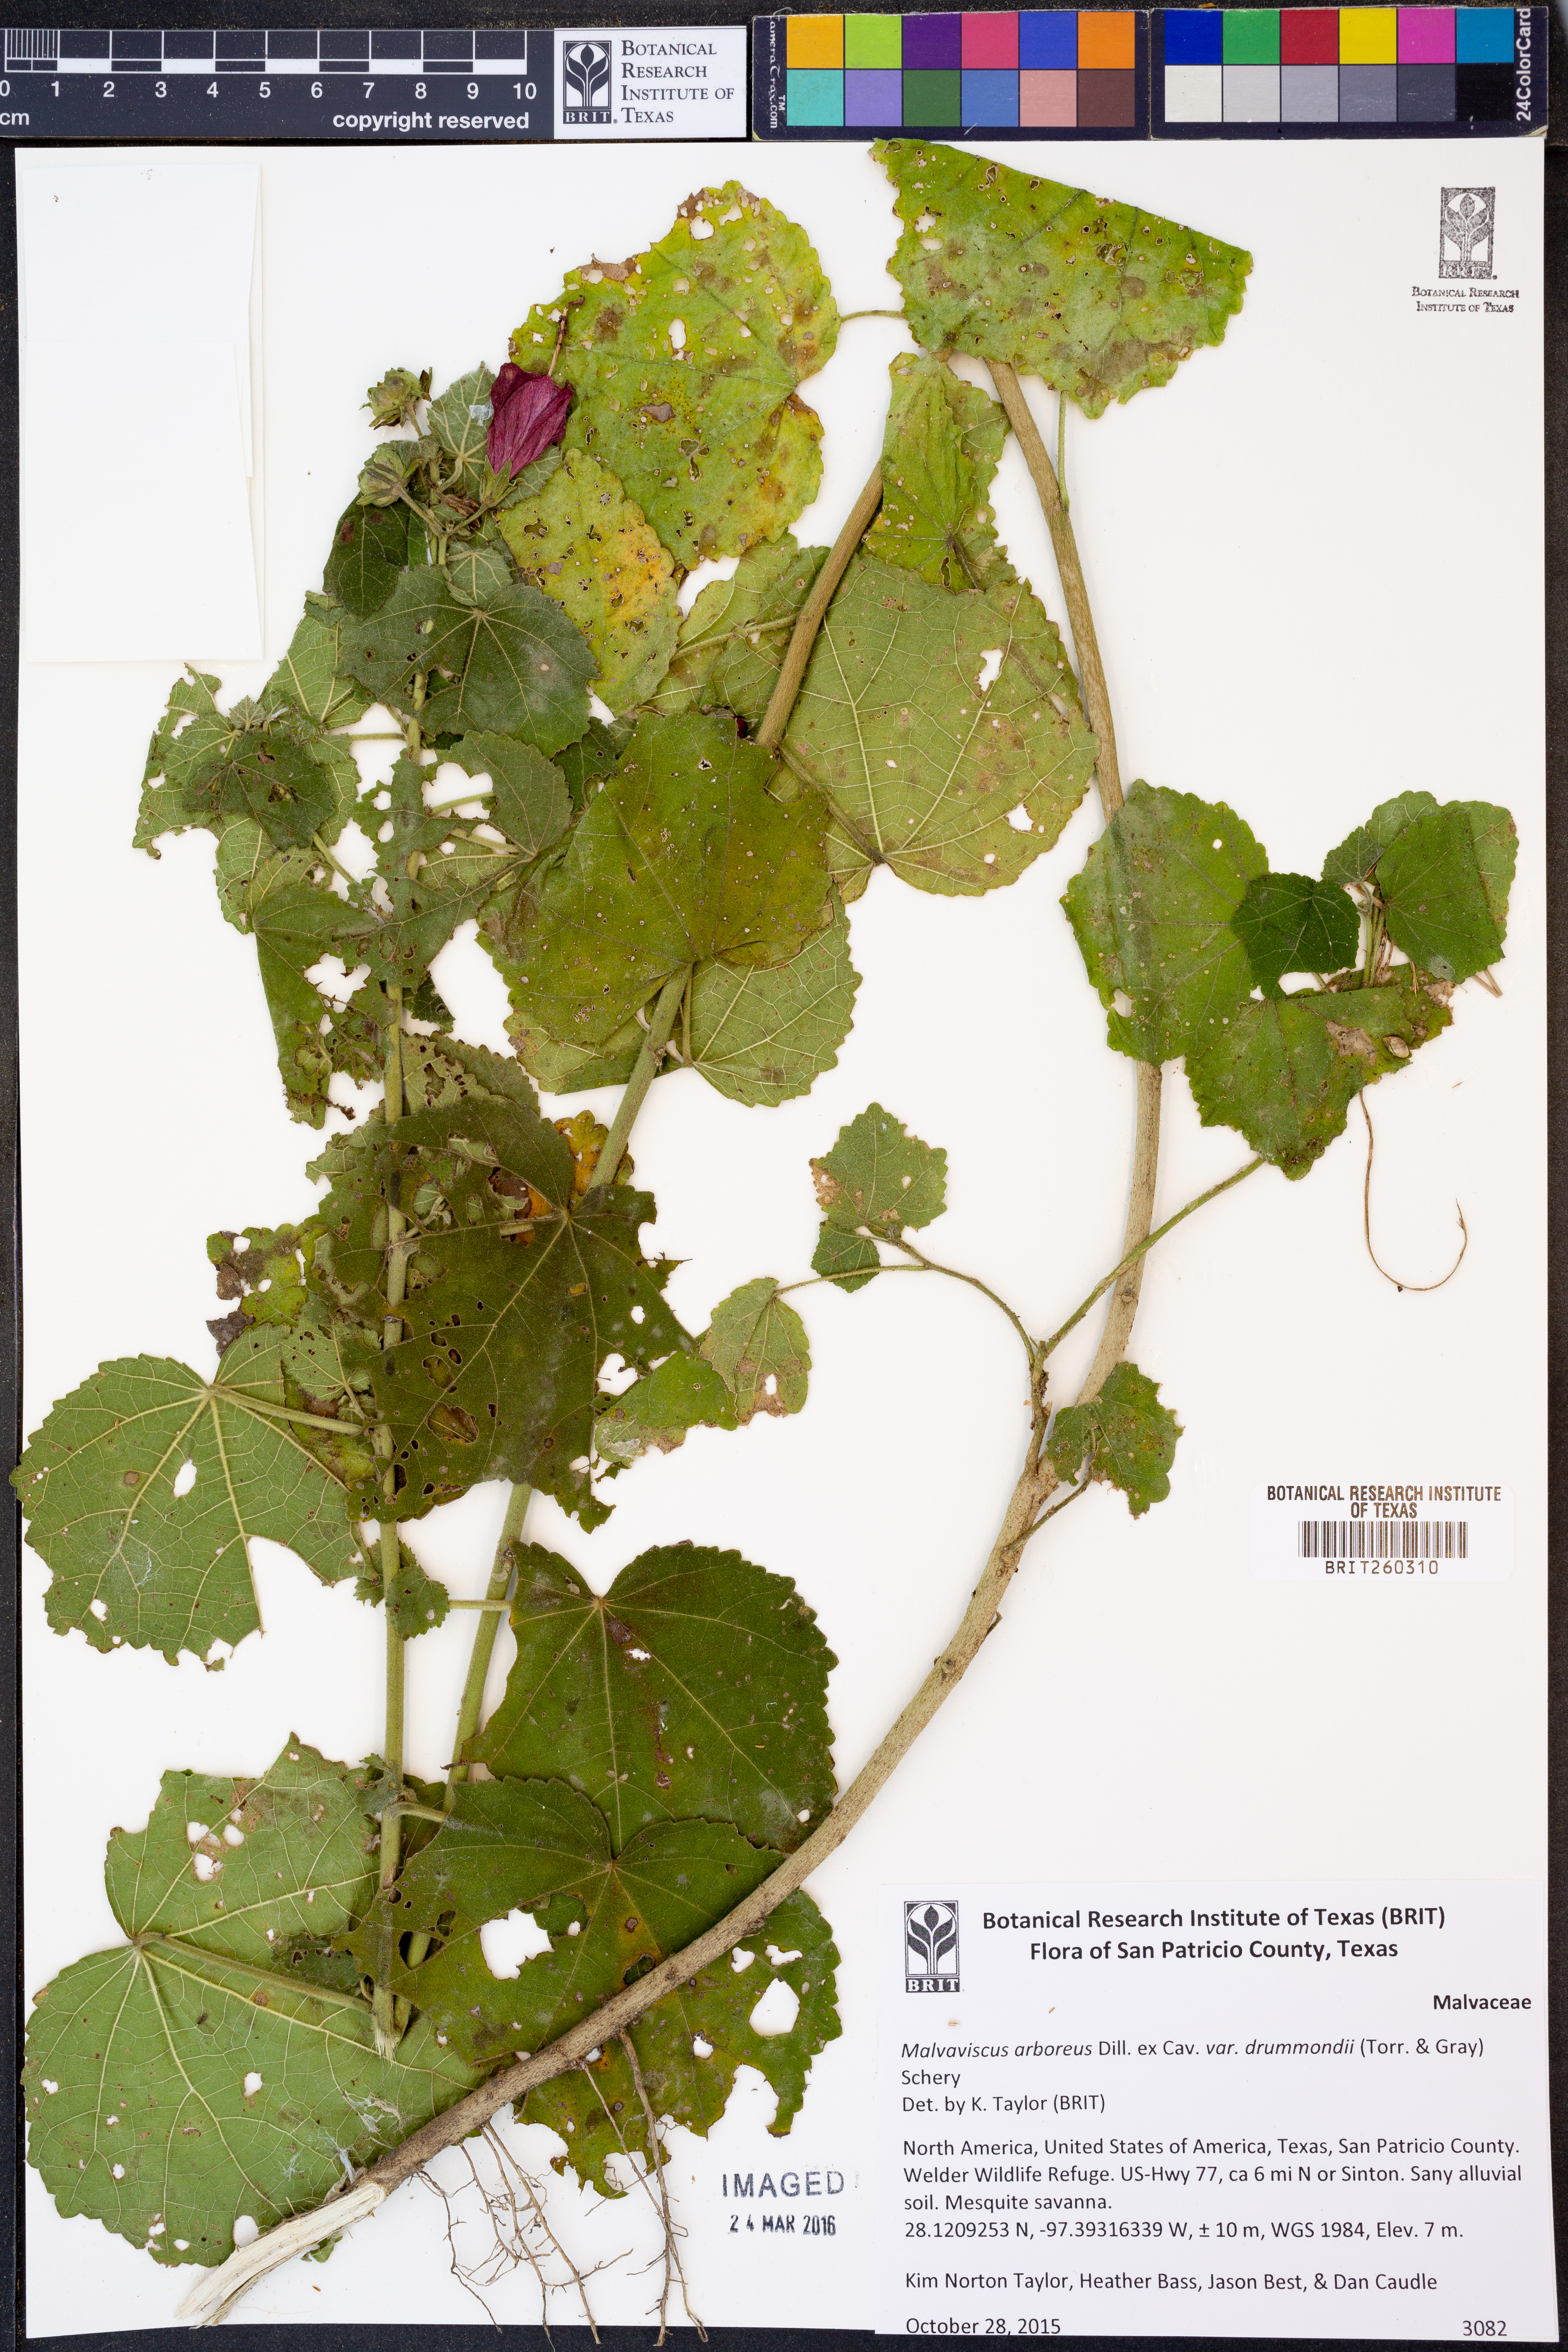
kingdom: Plantae
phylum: Tracheophyta
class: Magnoliopsida
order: Malvales
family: Malvaceae
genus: Malvaviscus
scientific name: Malvaviscus arboreus
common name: Wax mallow
